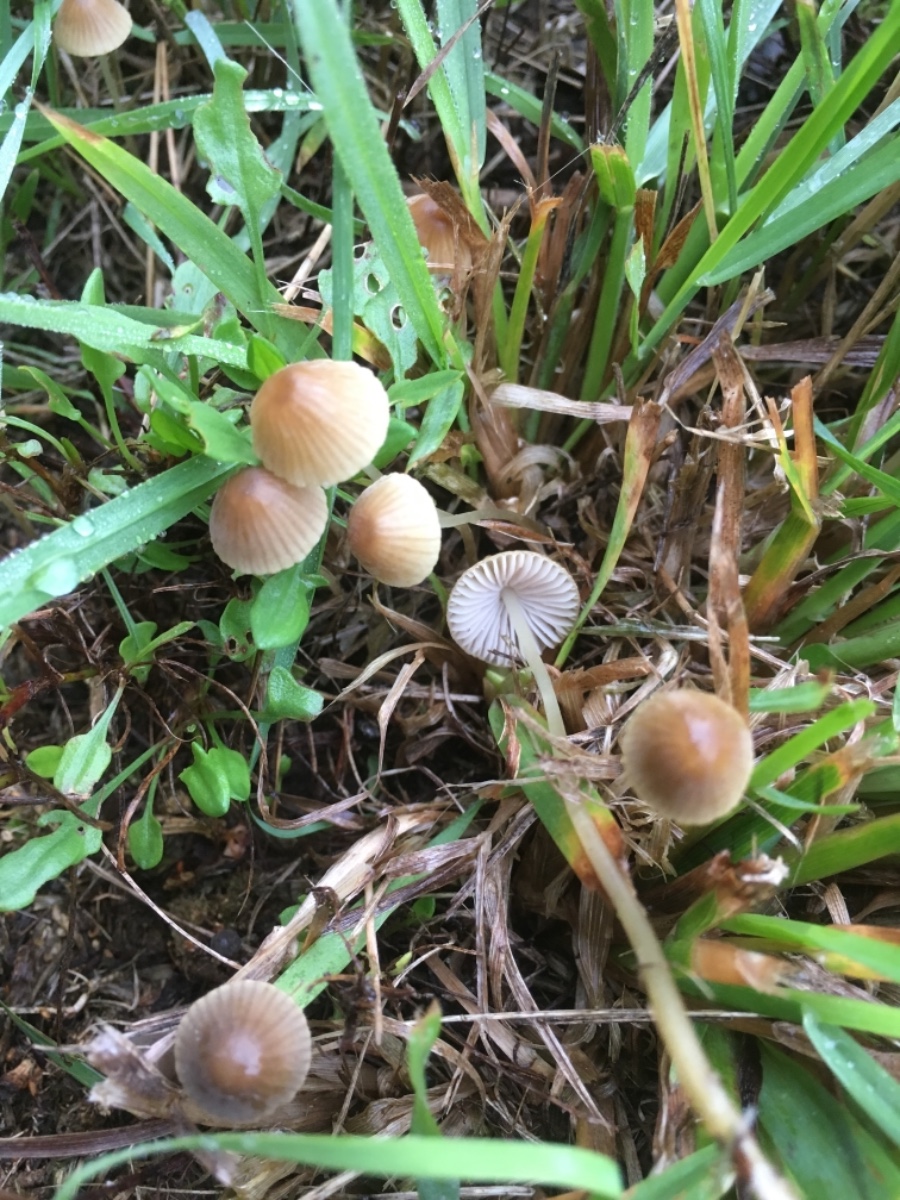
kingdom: Fungi
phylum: Basidiomycota
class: Agaricomycetes
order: Agaricales
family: Mycenaceae
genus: Mycena
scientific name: Mycena
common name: huesvamp
